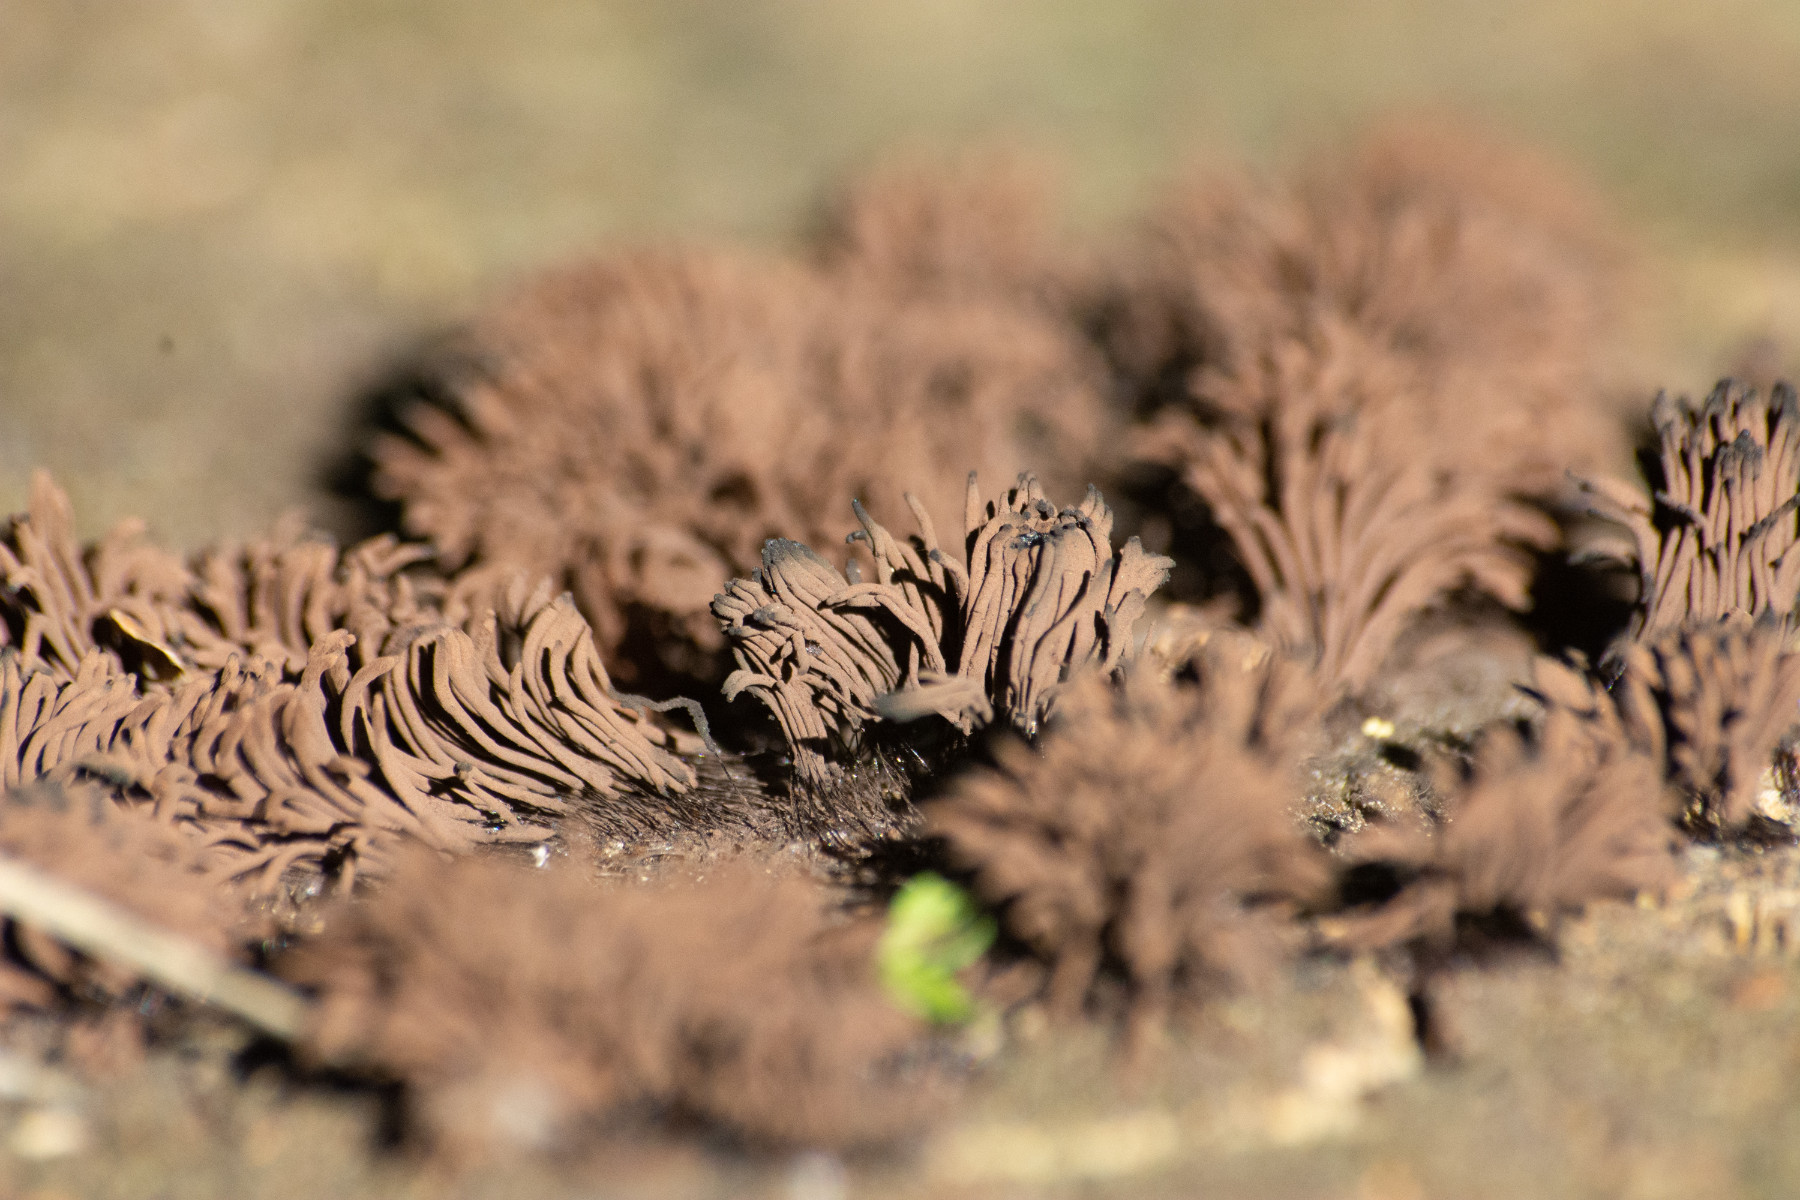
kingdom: Protozoa
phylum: Mycetozoa
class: Myxomycetes
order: Stemonitidales
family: Stemonitidaceae
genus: Stemonitis
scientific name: Stemonitis
